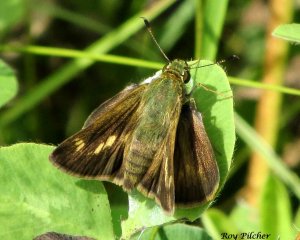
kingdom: Animalia
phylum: Arthropoda
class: Insecta
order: Lepidoptera
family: Hesperiidae
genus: Polites
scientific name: Polites egeremet
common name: Northern Broken-Dash
